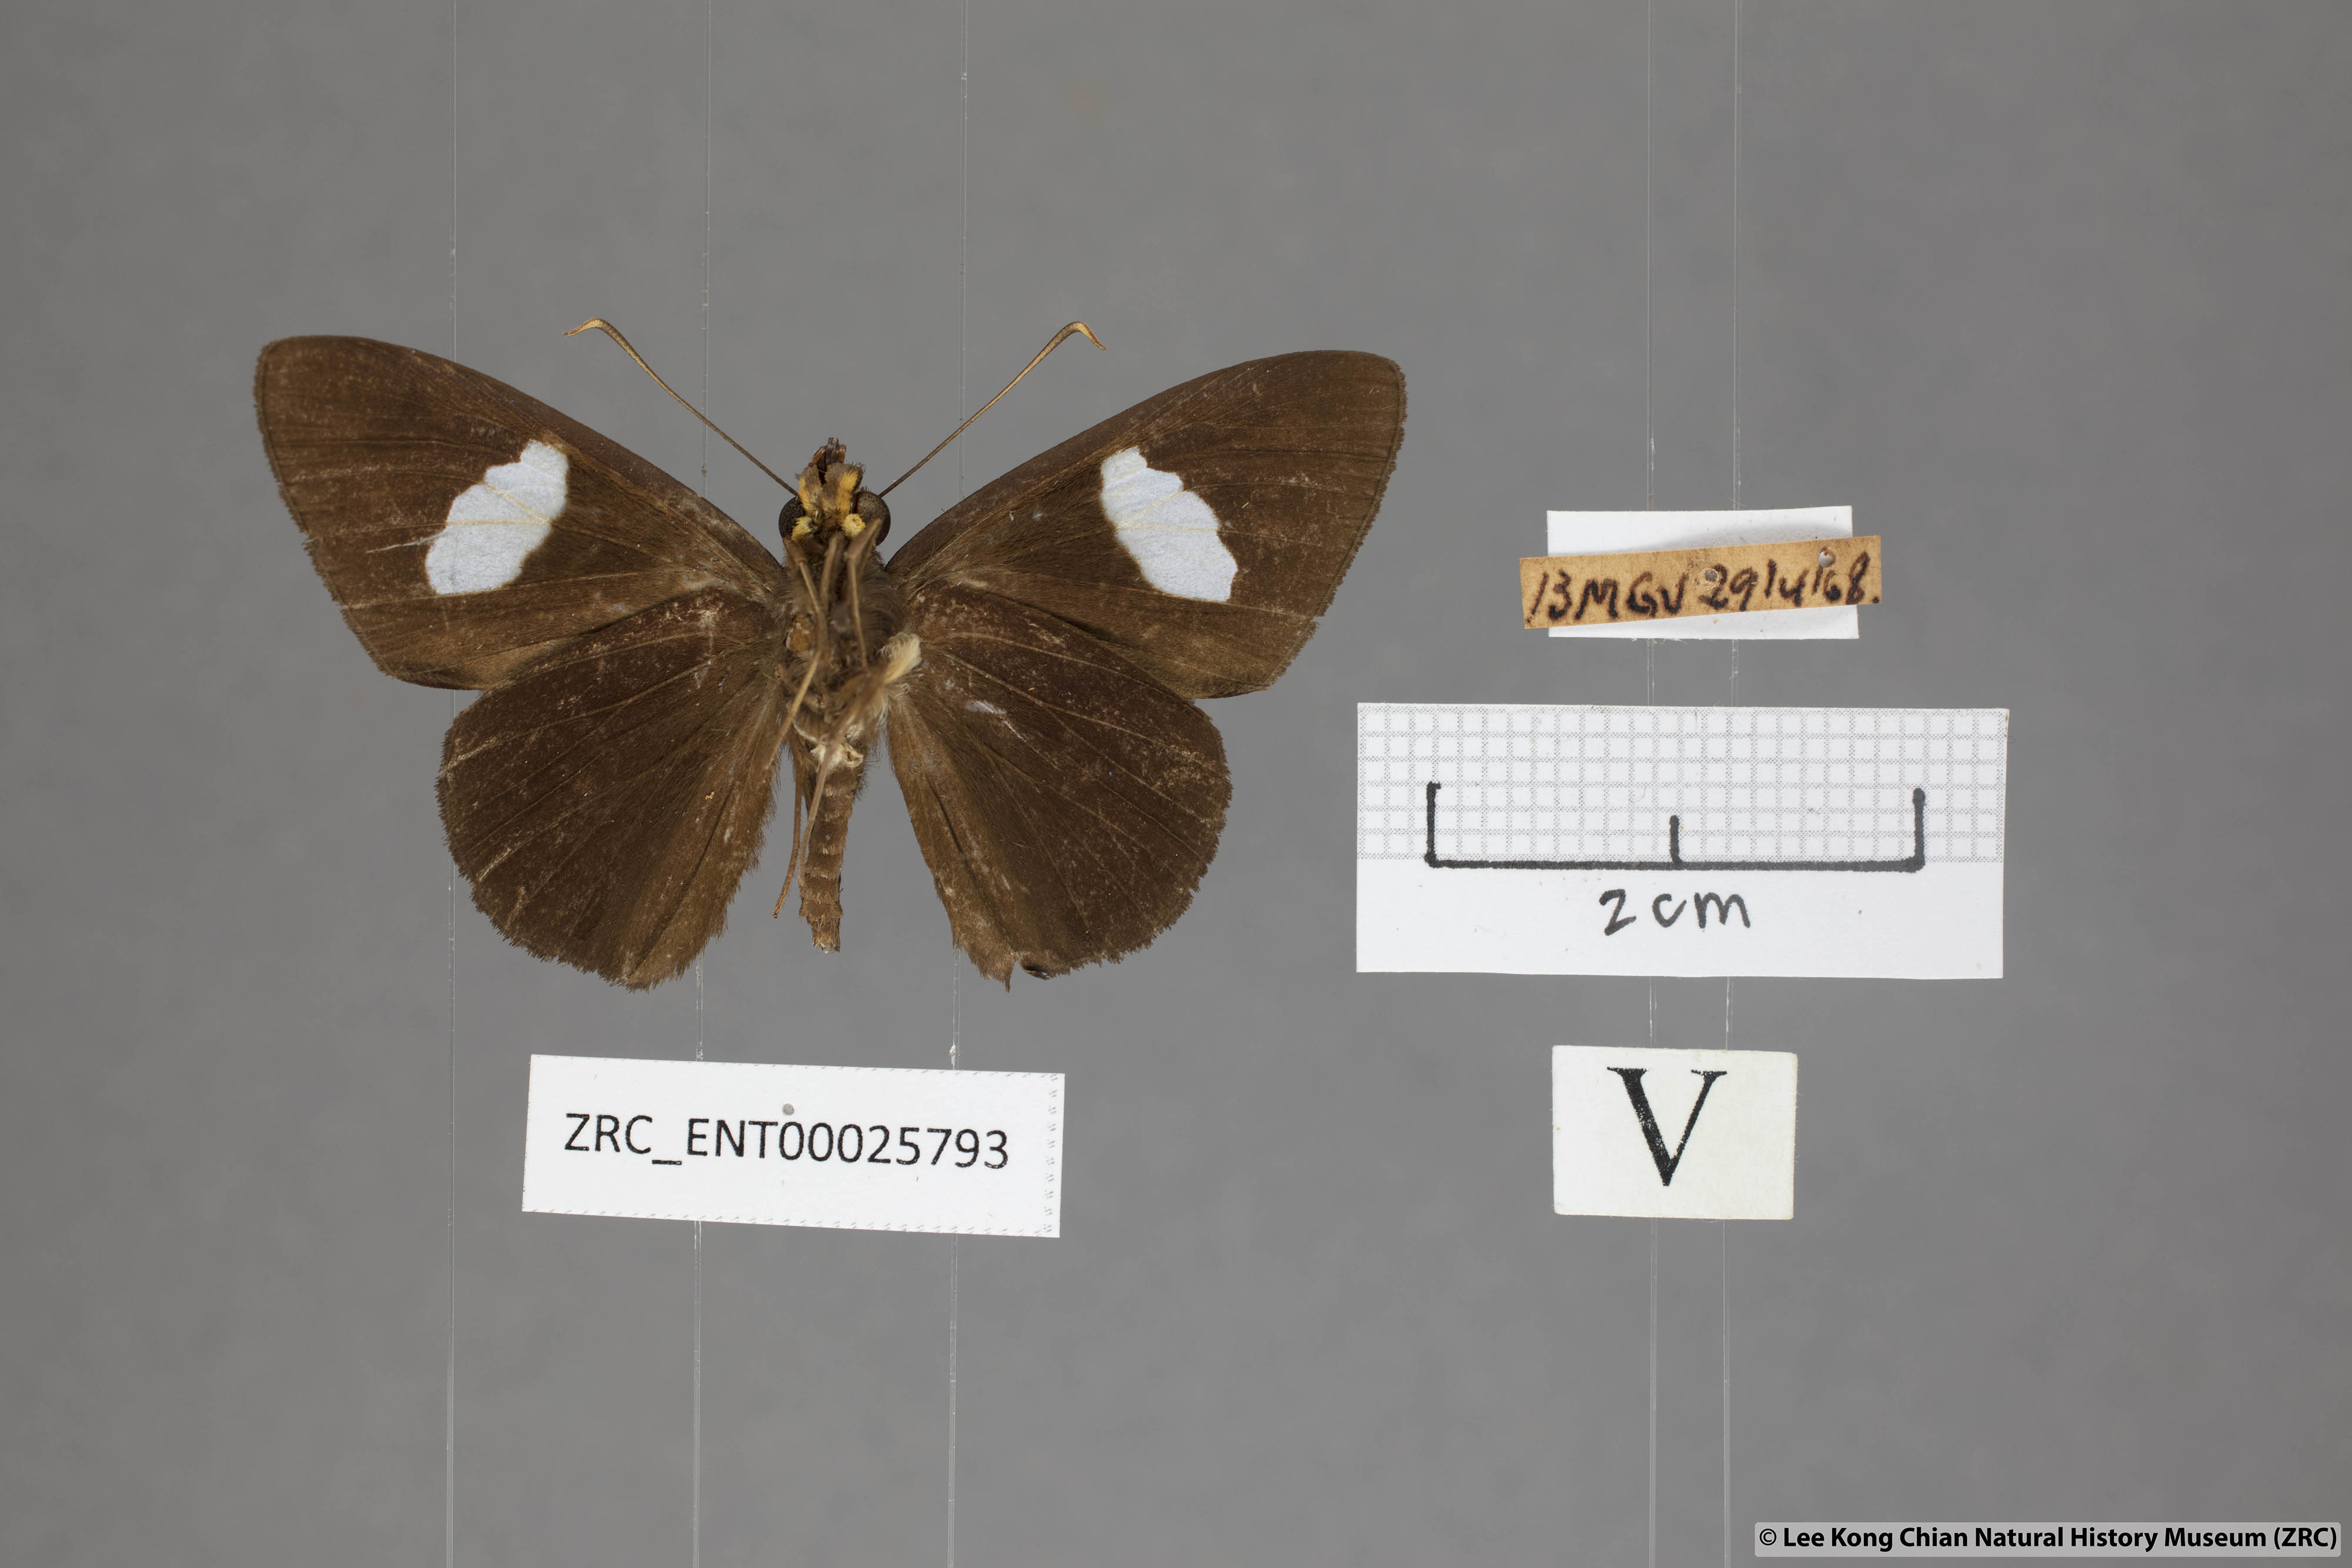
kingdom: Animalia
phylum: Arthropoda
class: Insecta
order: Lepidoptera
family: Hesperiidae
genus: Celaenorrhinus
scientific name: Celaenorrhinus ficulnea
